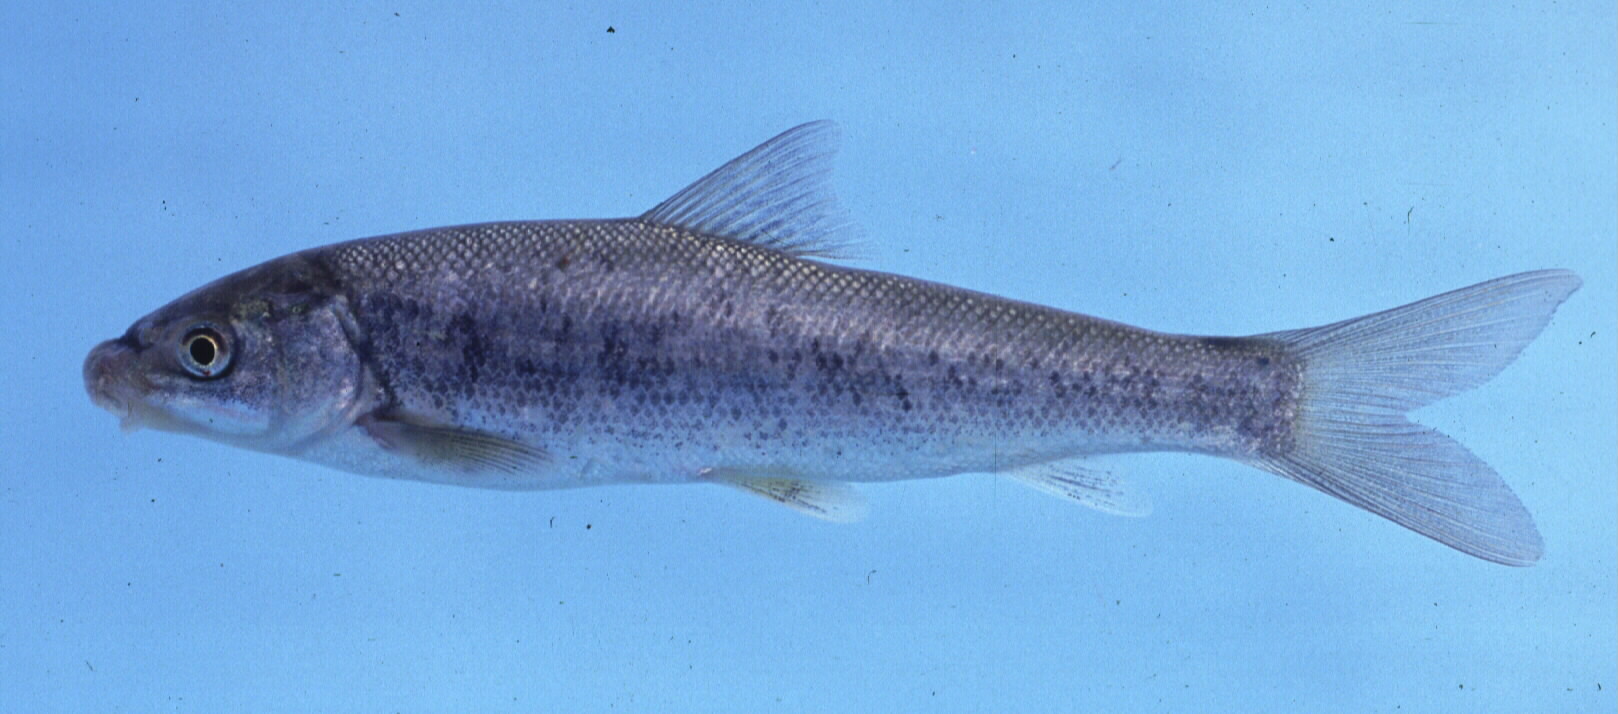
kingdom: Animalia
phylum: Chordata
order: Cypriniformes
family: Cyprinidae
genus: Labeo
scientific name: Labeo umbratus
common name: Moggel
